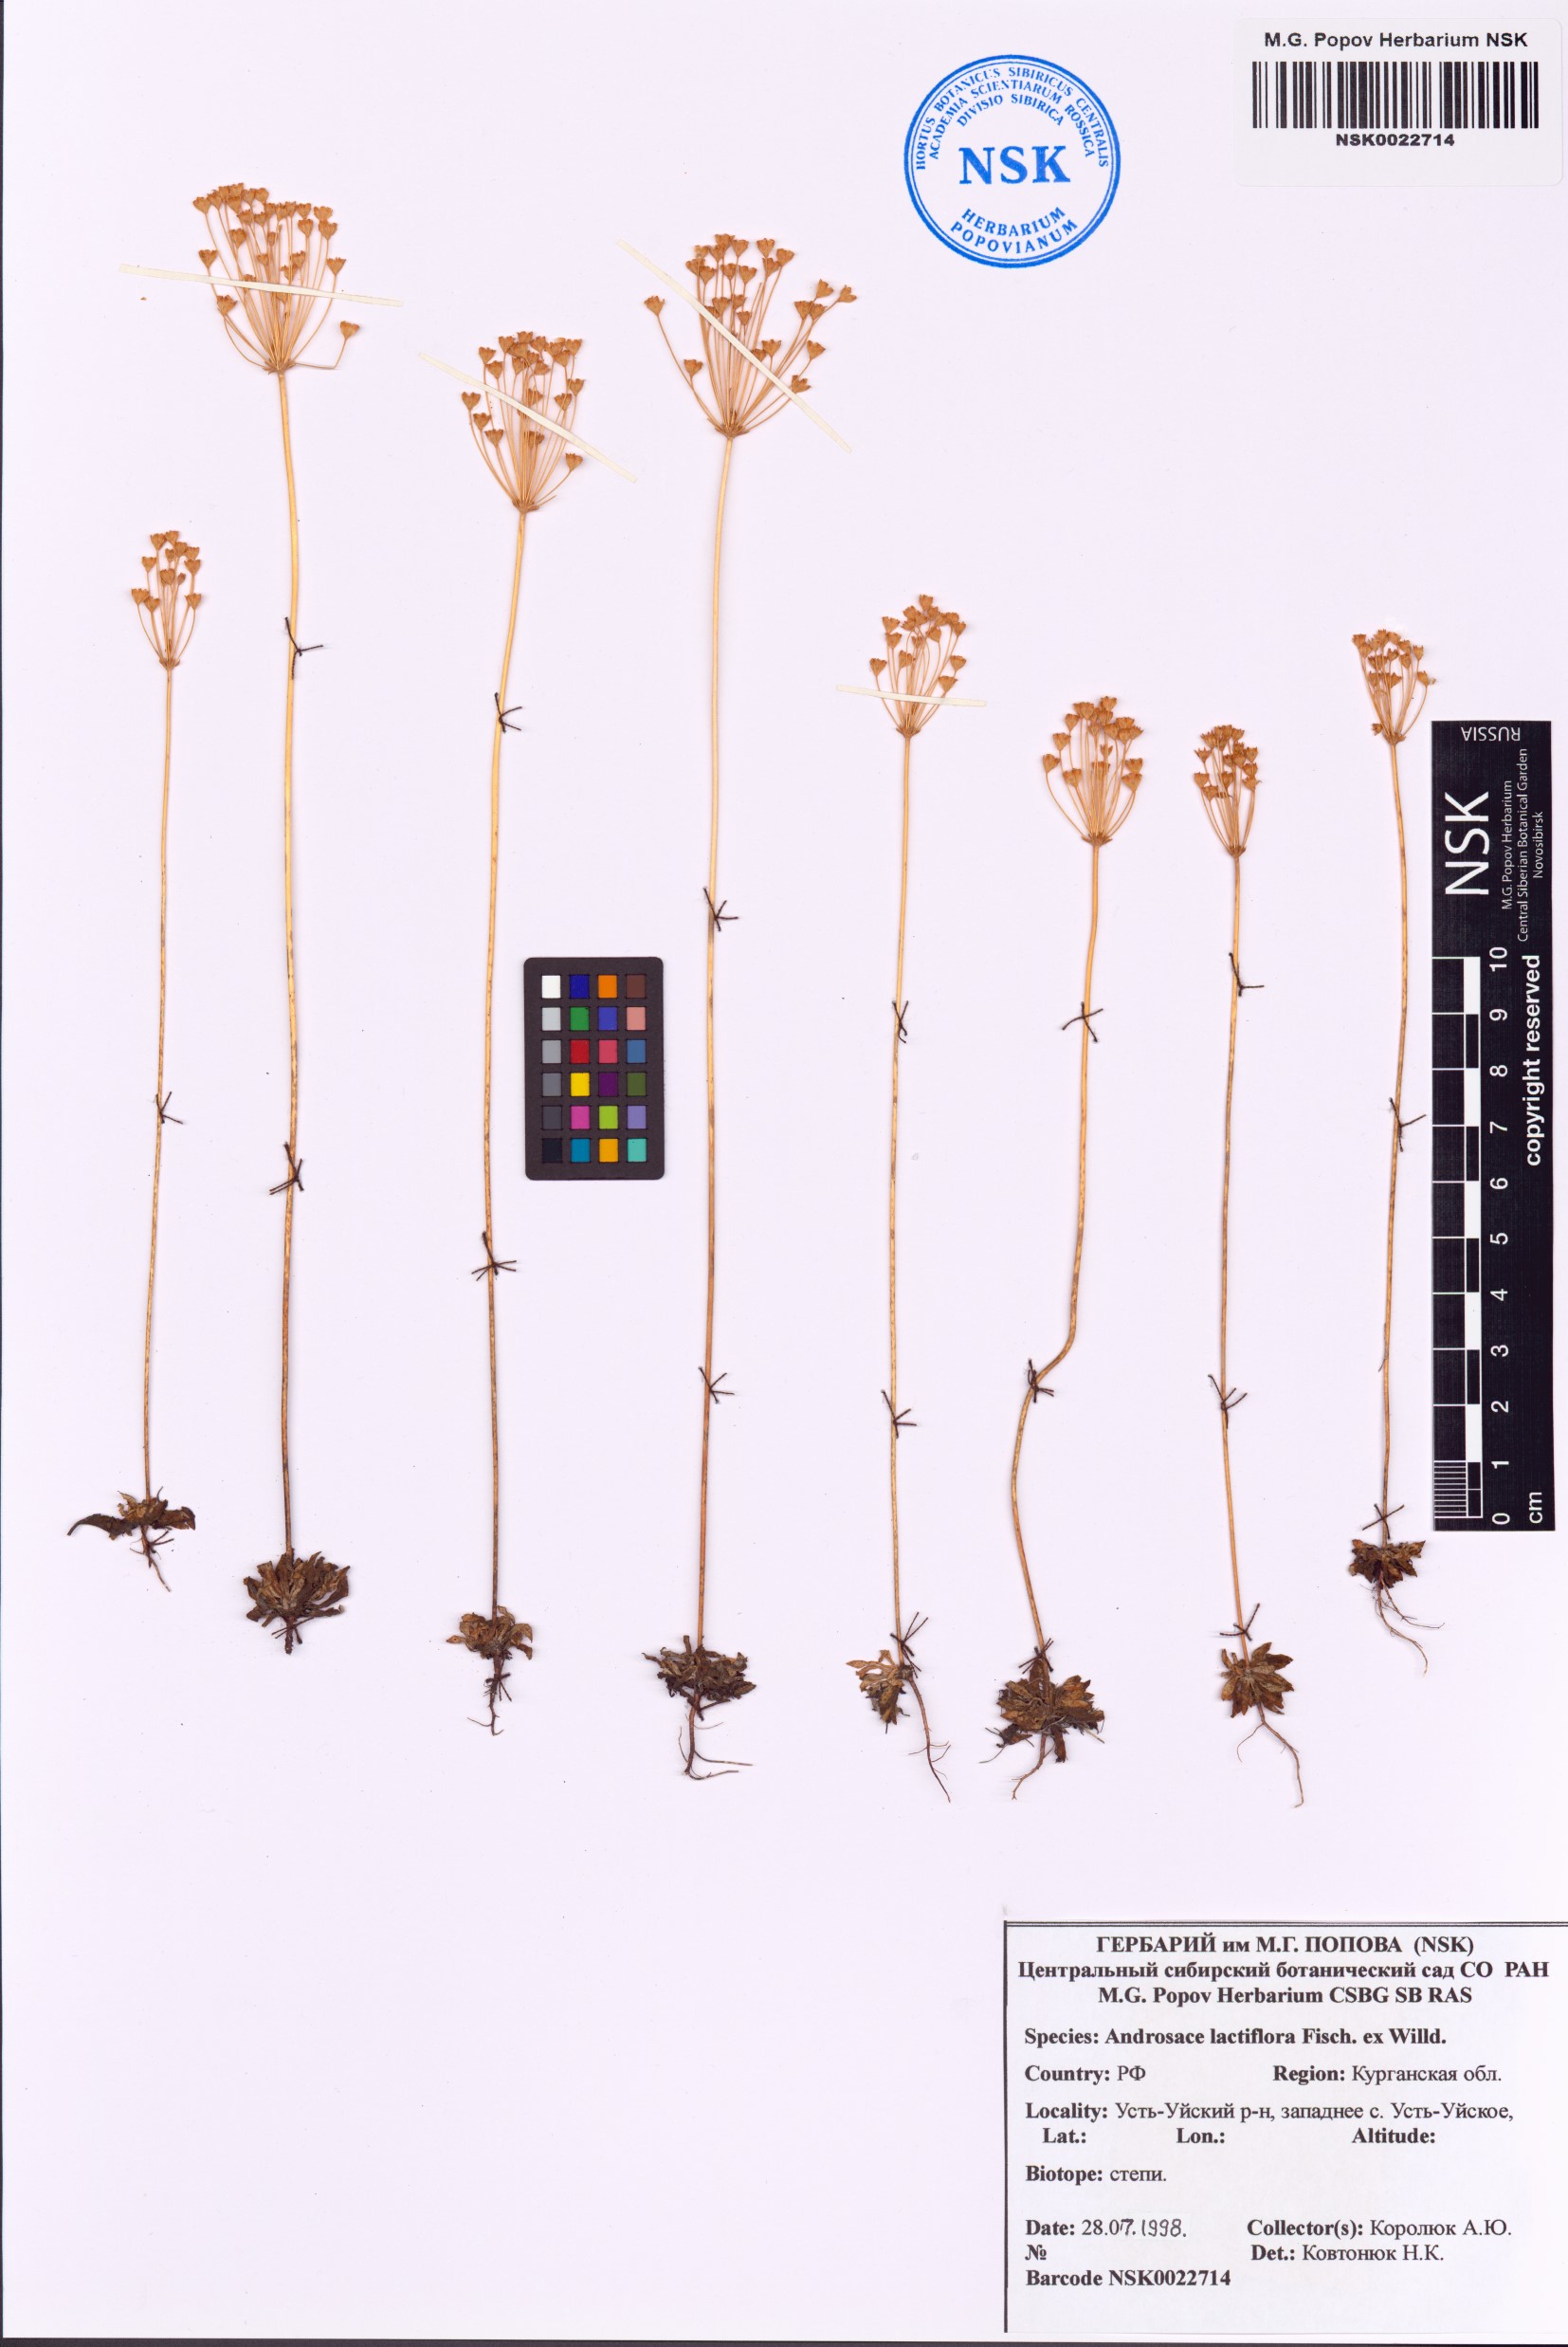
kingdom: Plantae
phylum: Tracheophyta
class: Magnoliopsida
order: Ericales
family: Primulaceae
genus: Androsace
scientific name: Androsace lactiflora
